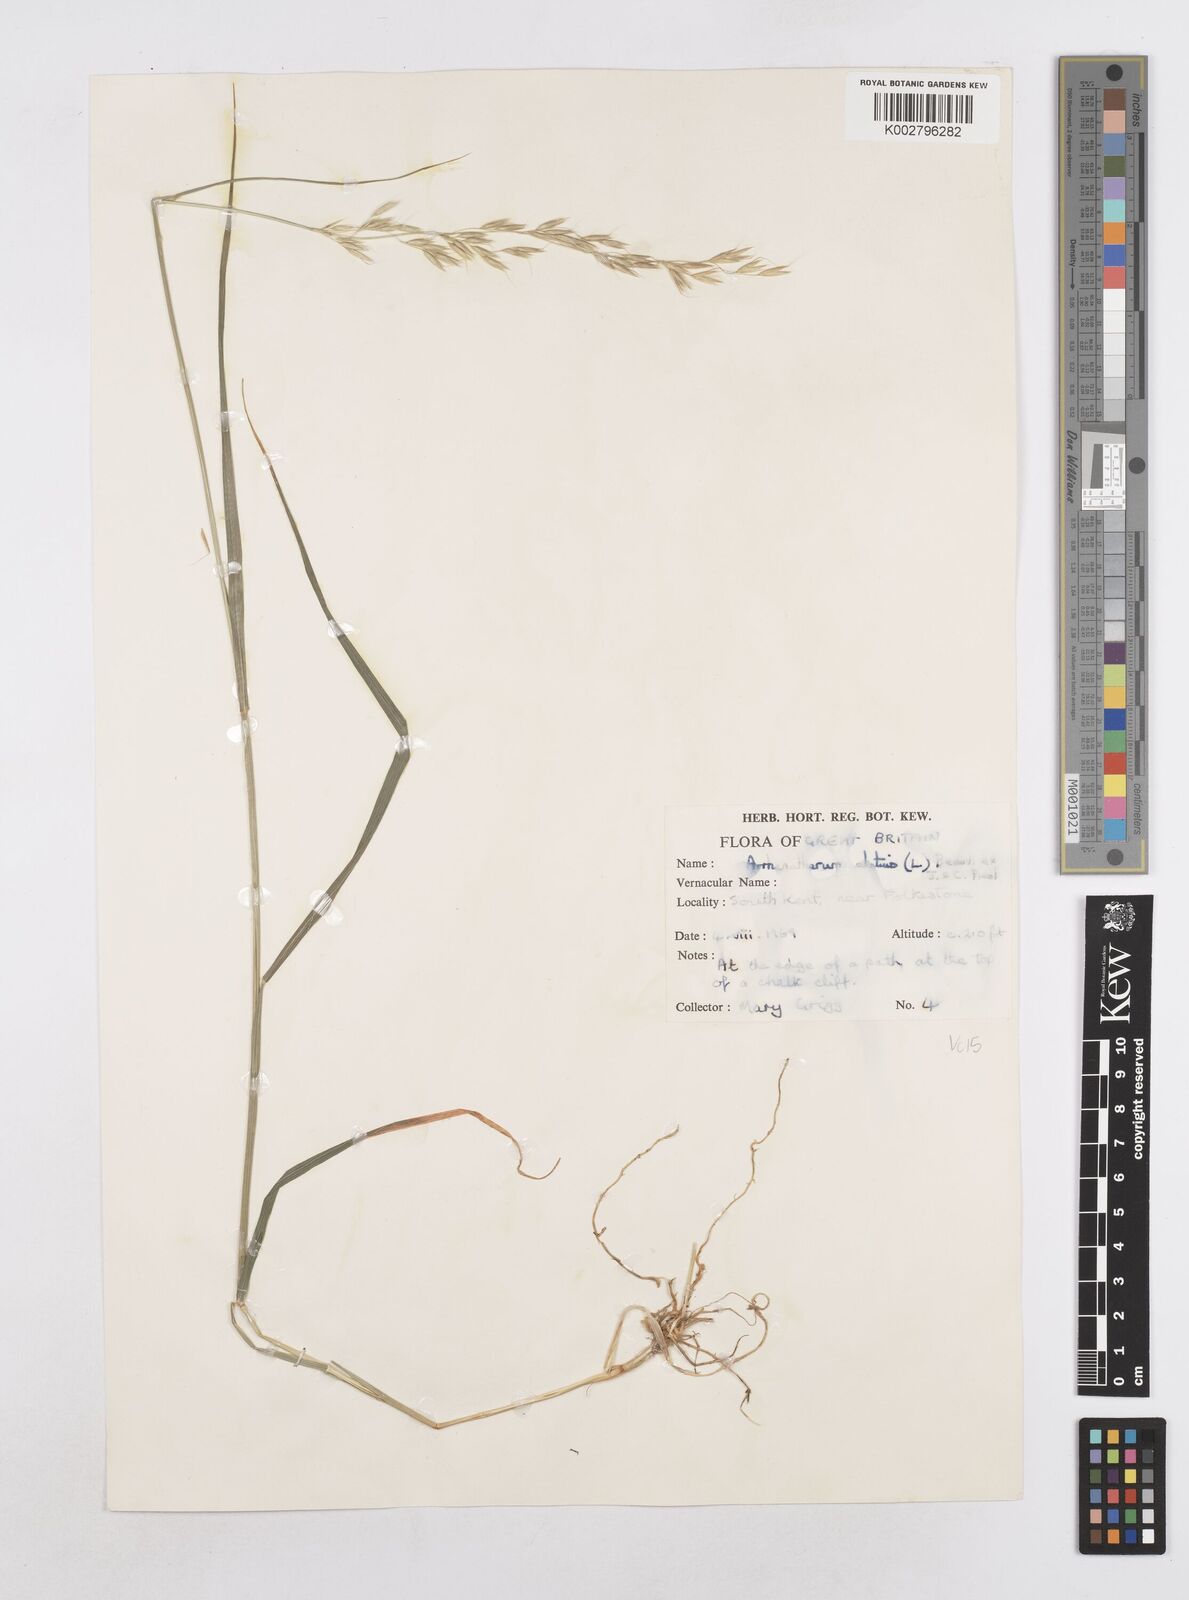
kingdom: Plantae
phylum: Tracheophyta
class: Liliopsida
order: Poales
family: Poaceae
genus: Arrhenatherum
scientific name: Arrhenatherum elatius
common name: Tall oatgrass
